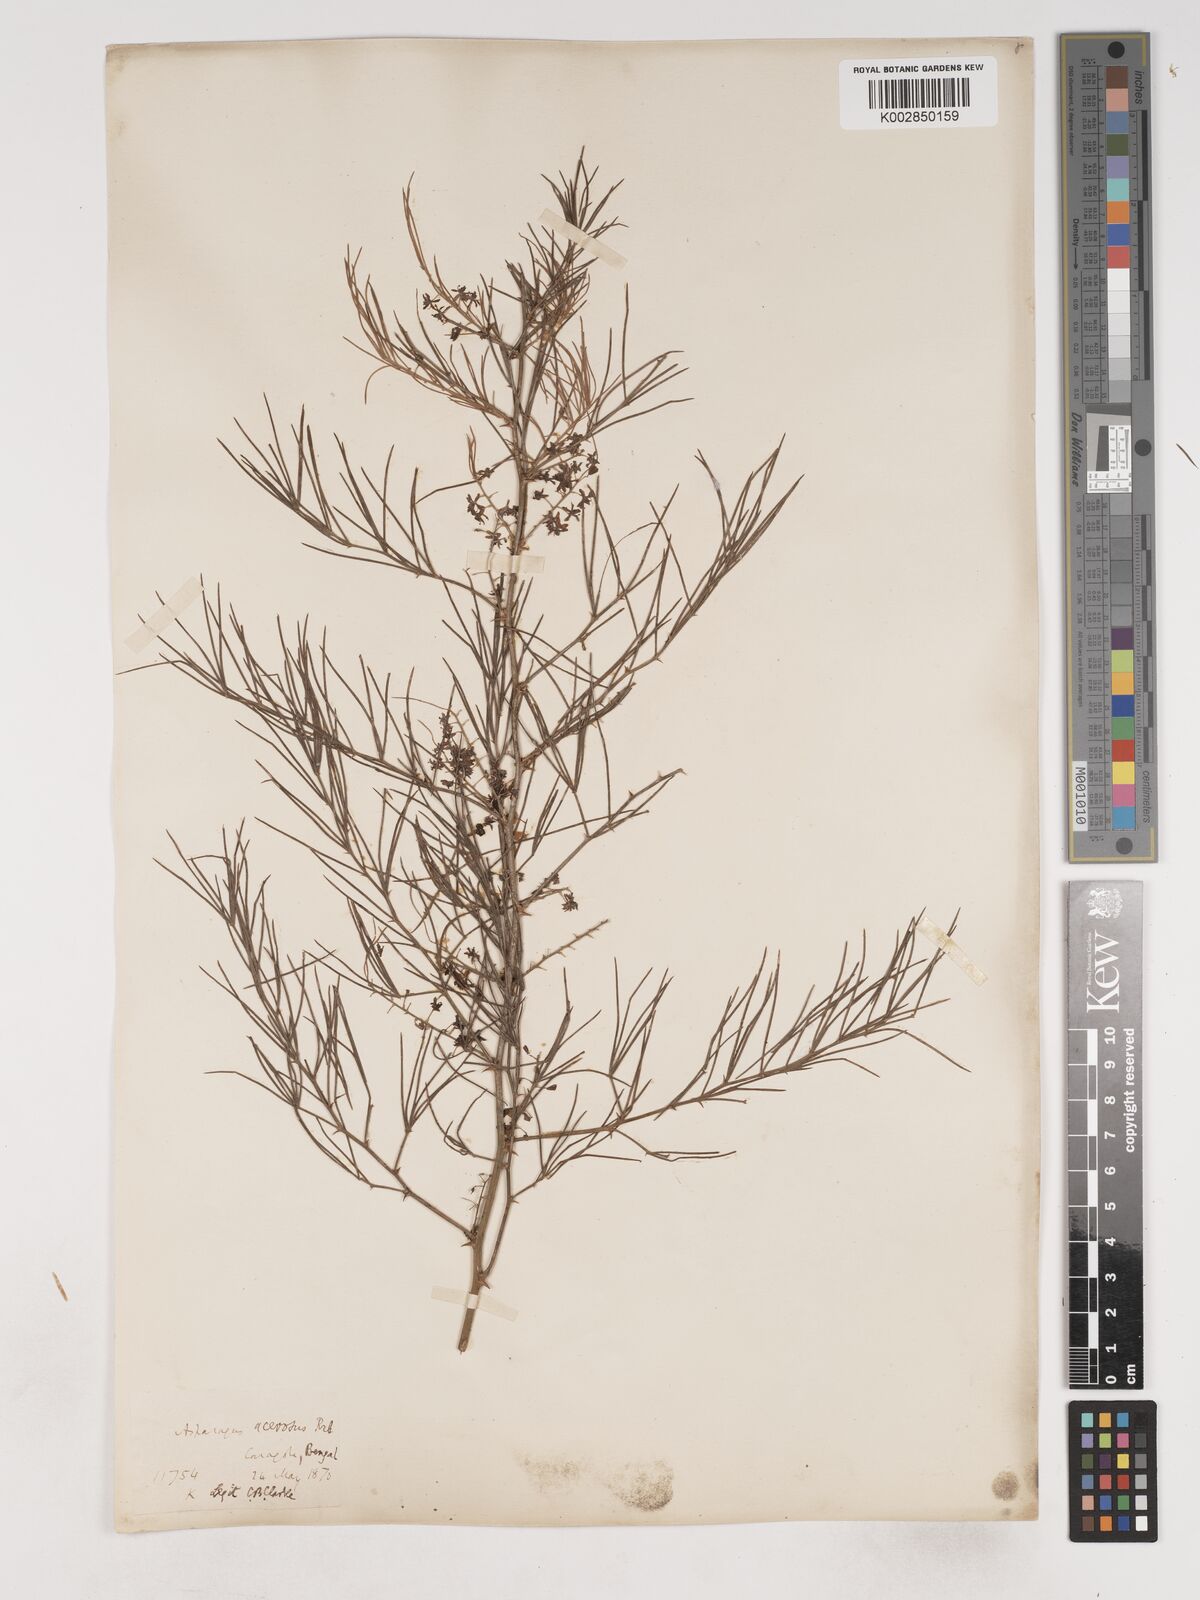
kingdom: Plantae
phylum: Tracheophyta
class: Liliopsida
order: Asparagales
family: Asparagaceae
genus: Asparagus
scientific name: Asparagus racemosus
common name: Asparagus-fern
